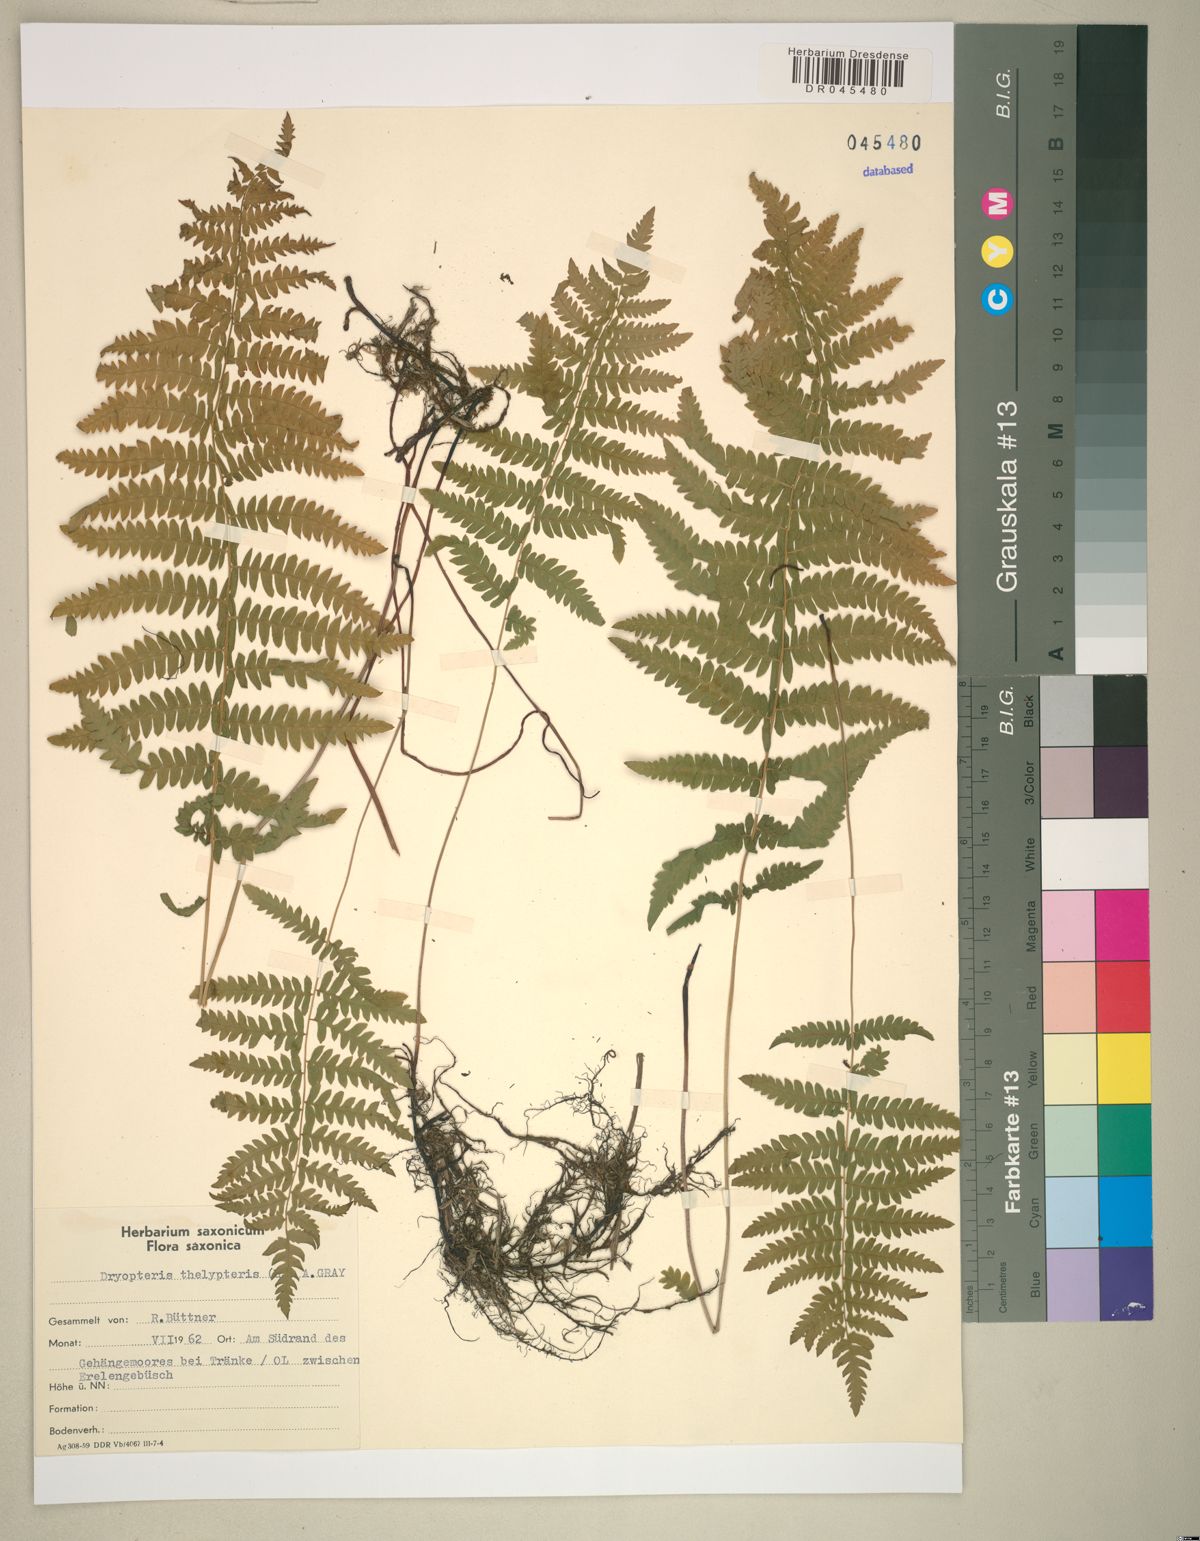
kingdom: Plantae
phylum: Tracheophyta
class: Polypodiopsida
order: Polypodiales
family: Thelypteridaceae
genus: Thelypteris
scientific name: Thelypteris palustris
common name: Marsh fern
